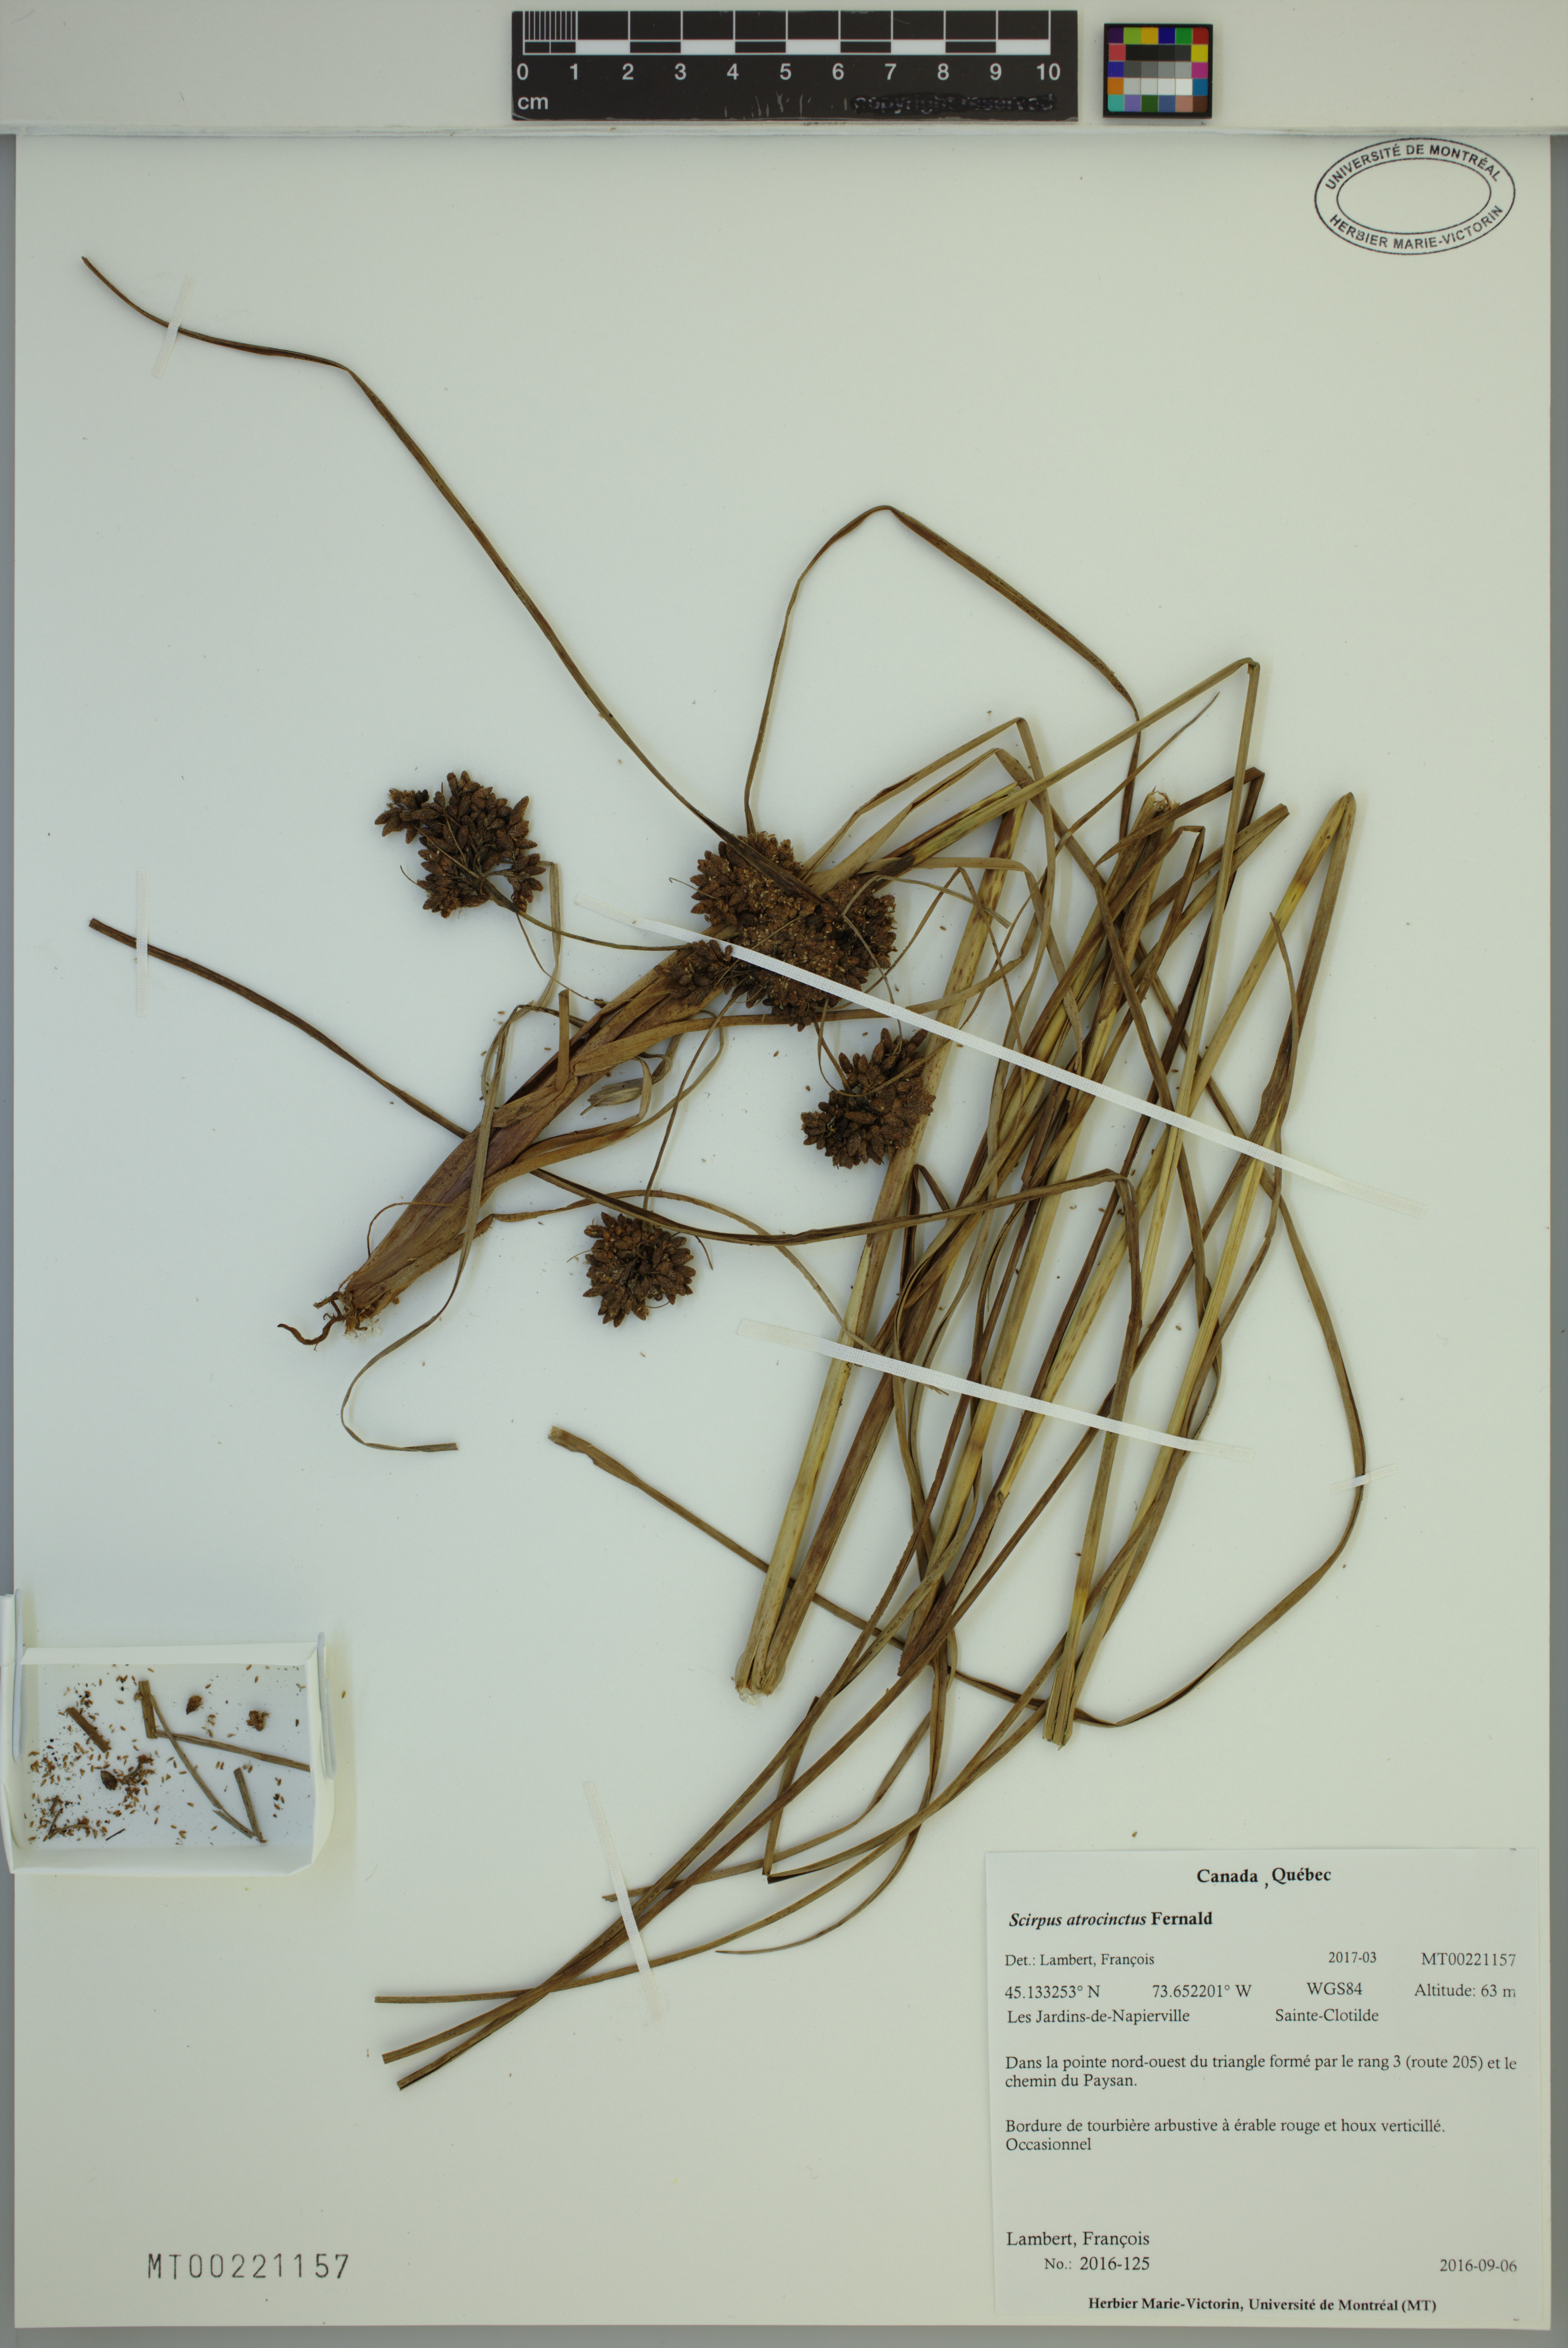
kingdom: Plantae
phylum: Tracheophyta
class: Liliopsida
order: Poales
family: Cyperaceae
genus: Scirpus
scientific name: Scirpus atrocinctus
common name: Black-girdled bulrush
